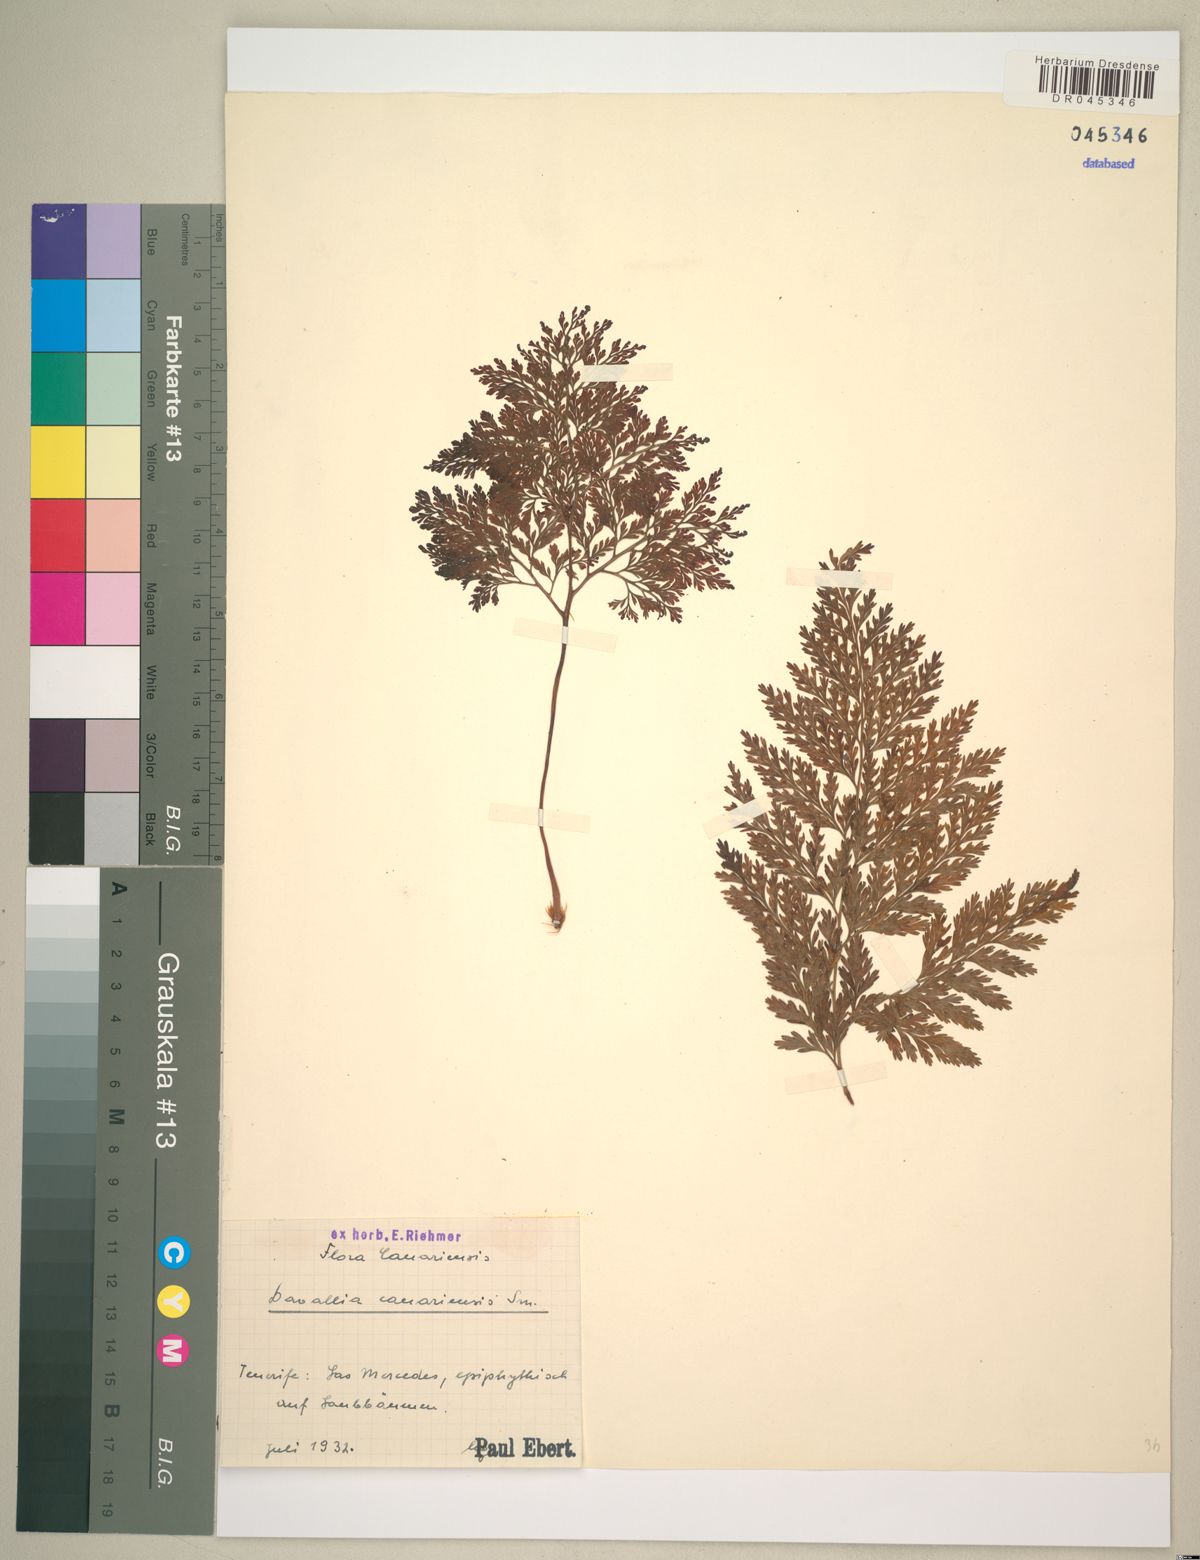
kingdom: Plantae
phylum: Tracheophyta
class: Polypodiopsida
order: Polypodiales
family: Davalliaceae
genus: Davallia
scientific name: Davallia canariensis
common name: Hare's-foot fern
